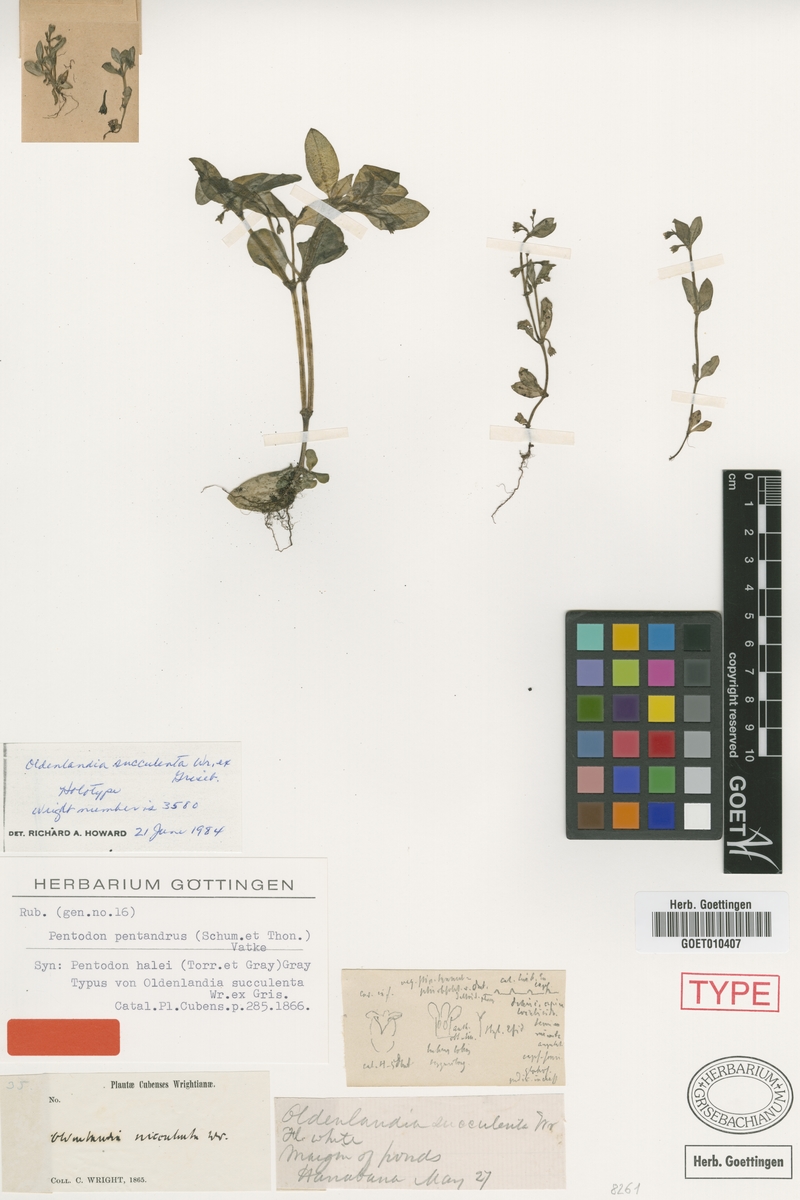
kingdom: Plantae
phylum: Tracheophyta
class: Magnoliopsida
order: Gentianales
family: Rubiaceae
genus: Pentodon
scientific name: Pentodon pentandrus
